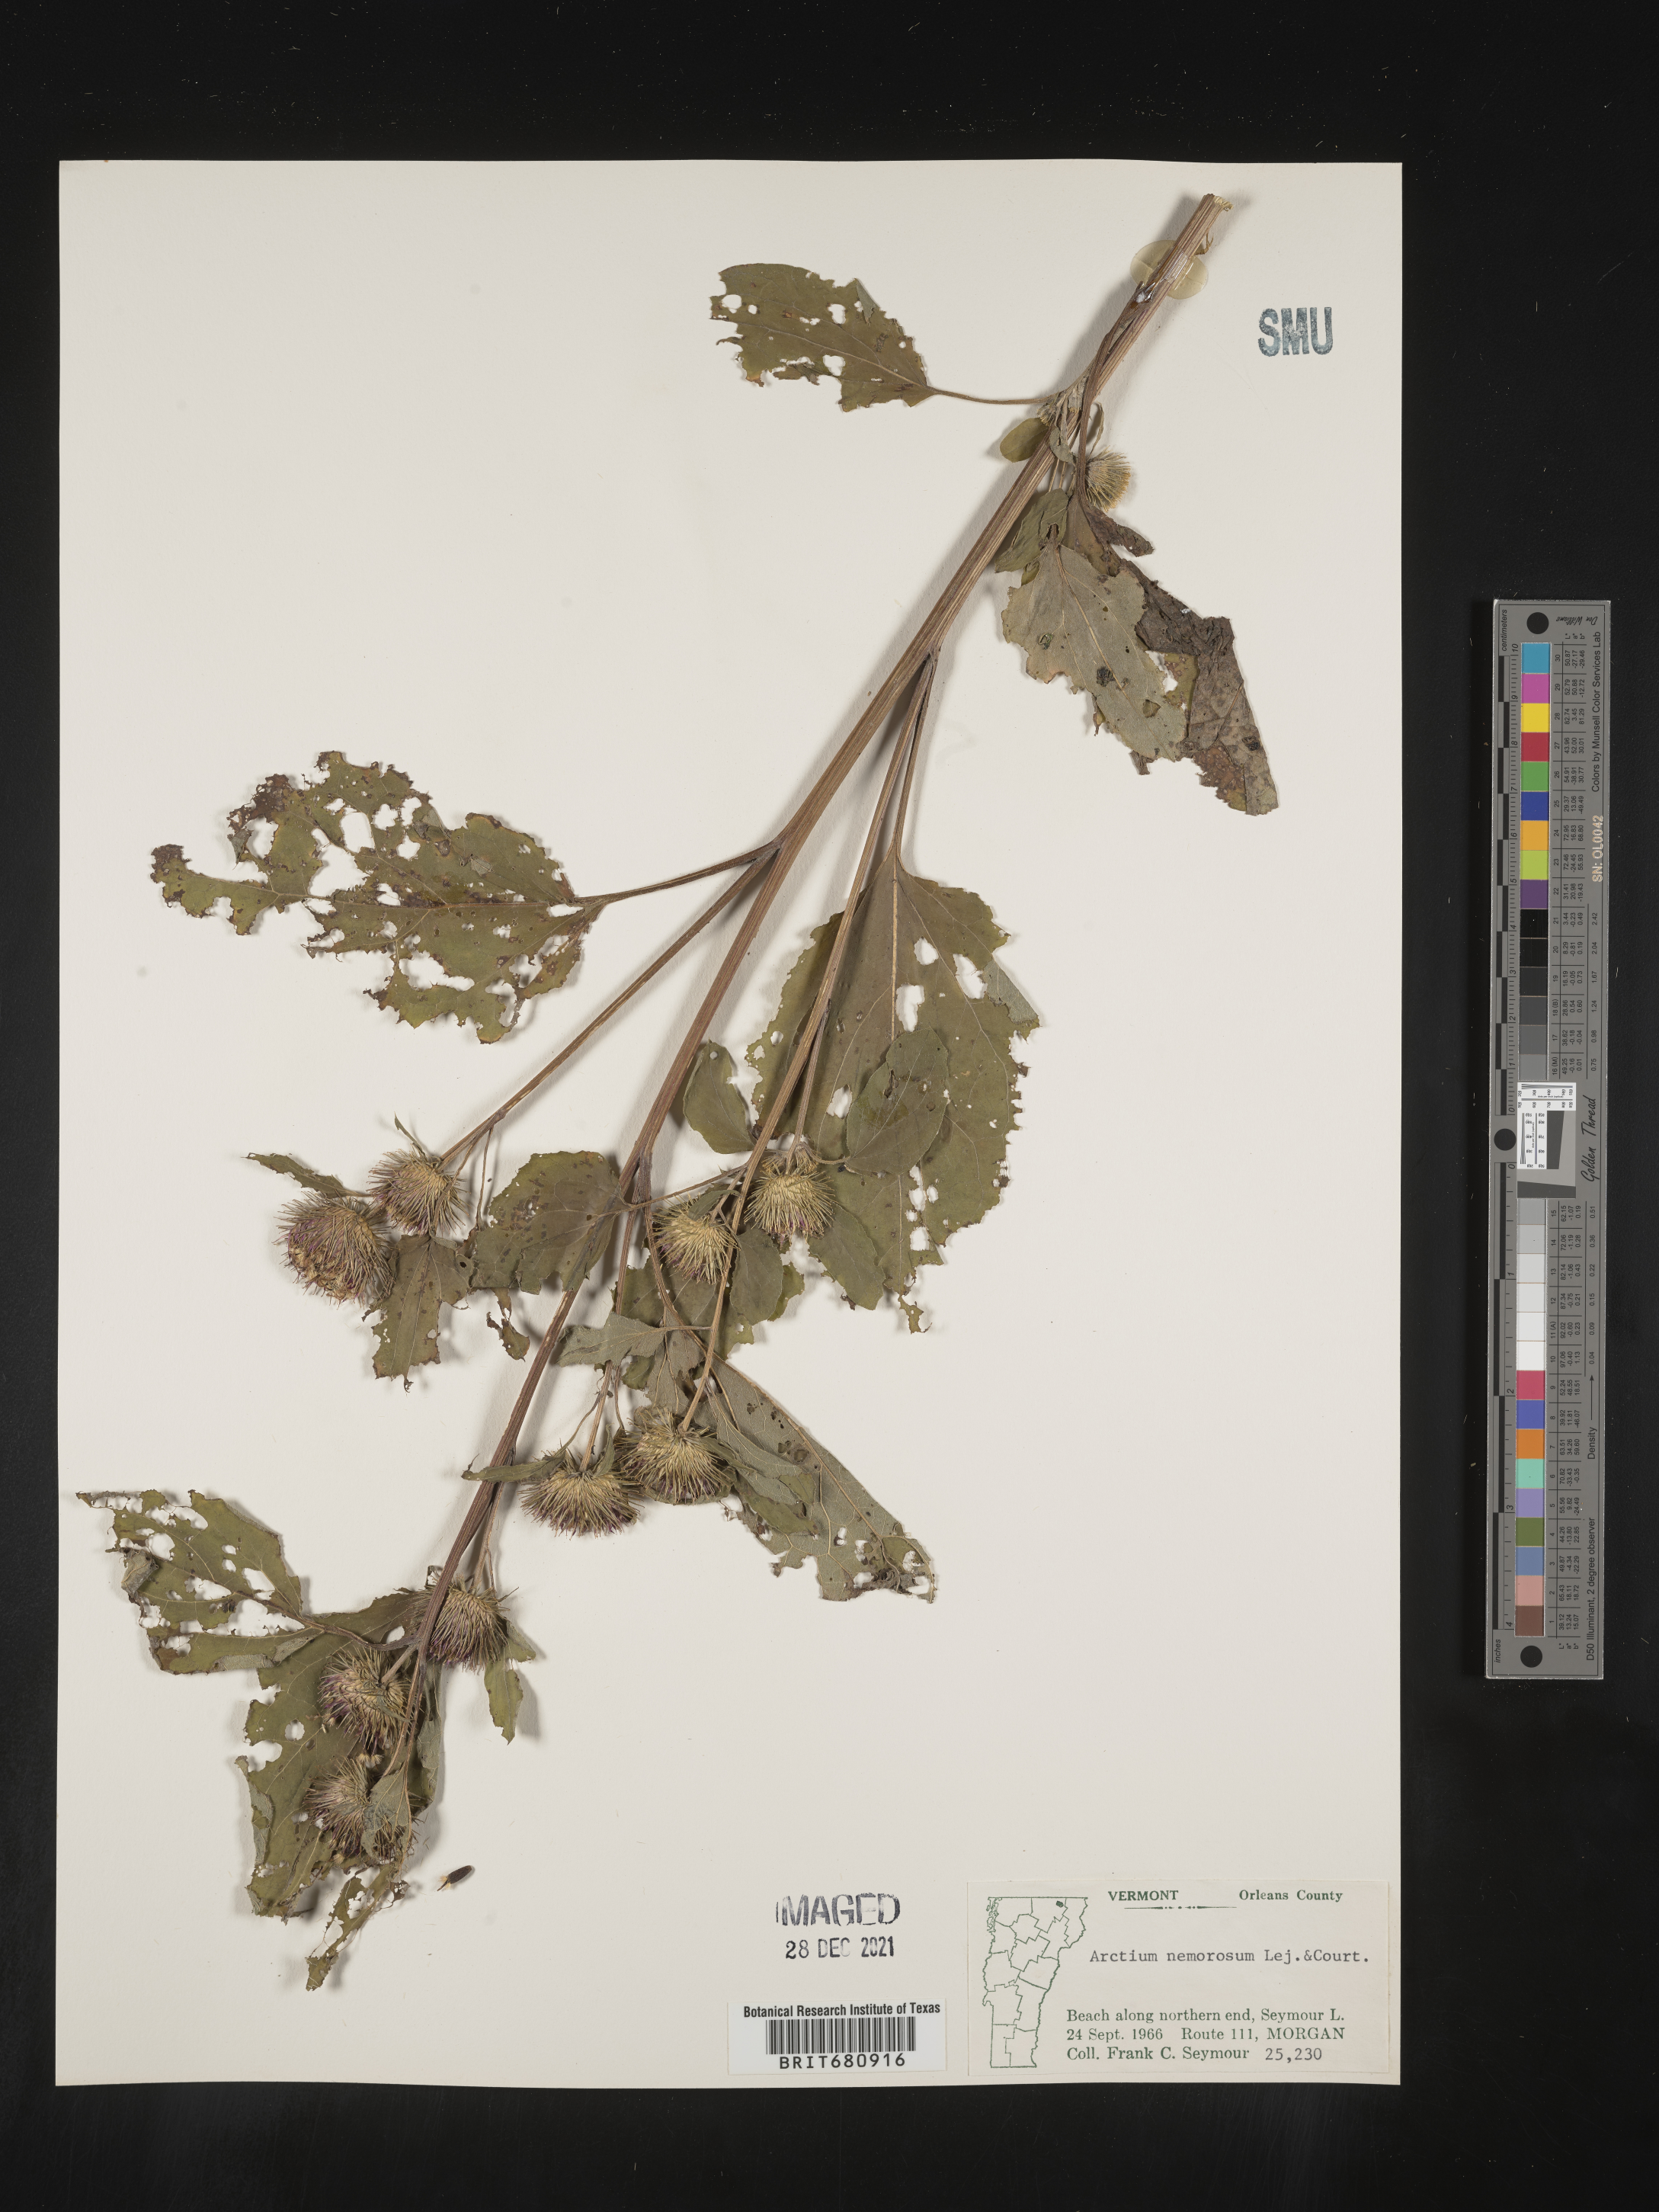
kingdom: Plantae
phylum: Tracheophyta
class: Magnoliopsida
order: Asterales
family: Asteraceae
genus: Arctium
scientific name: Arctium
